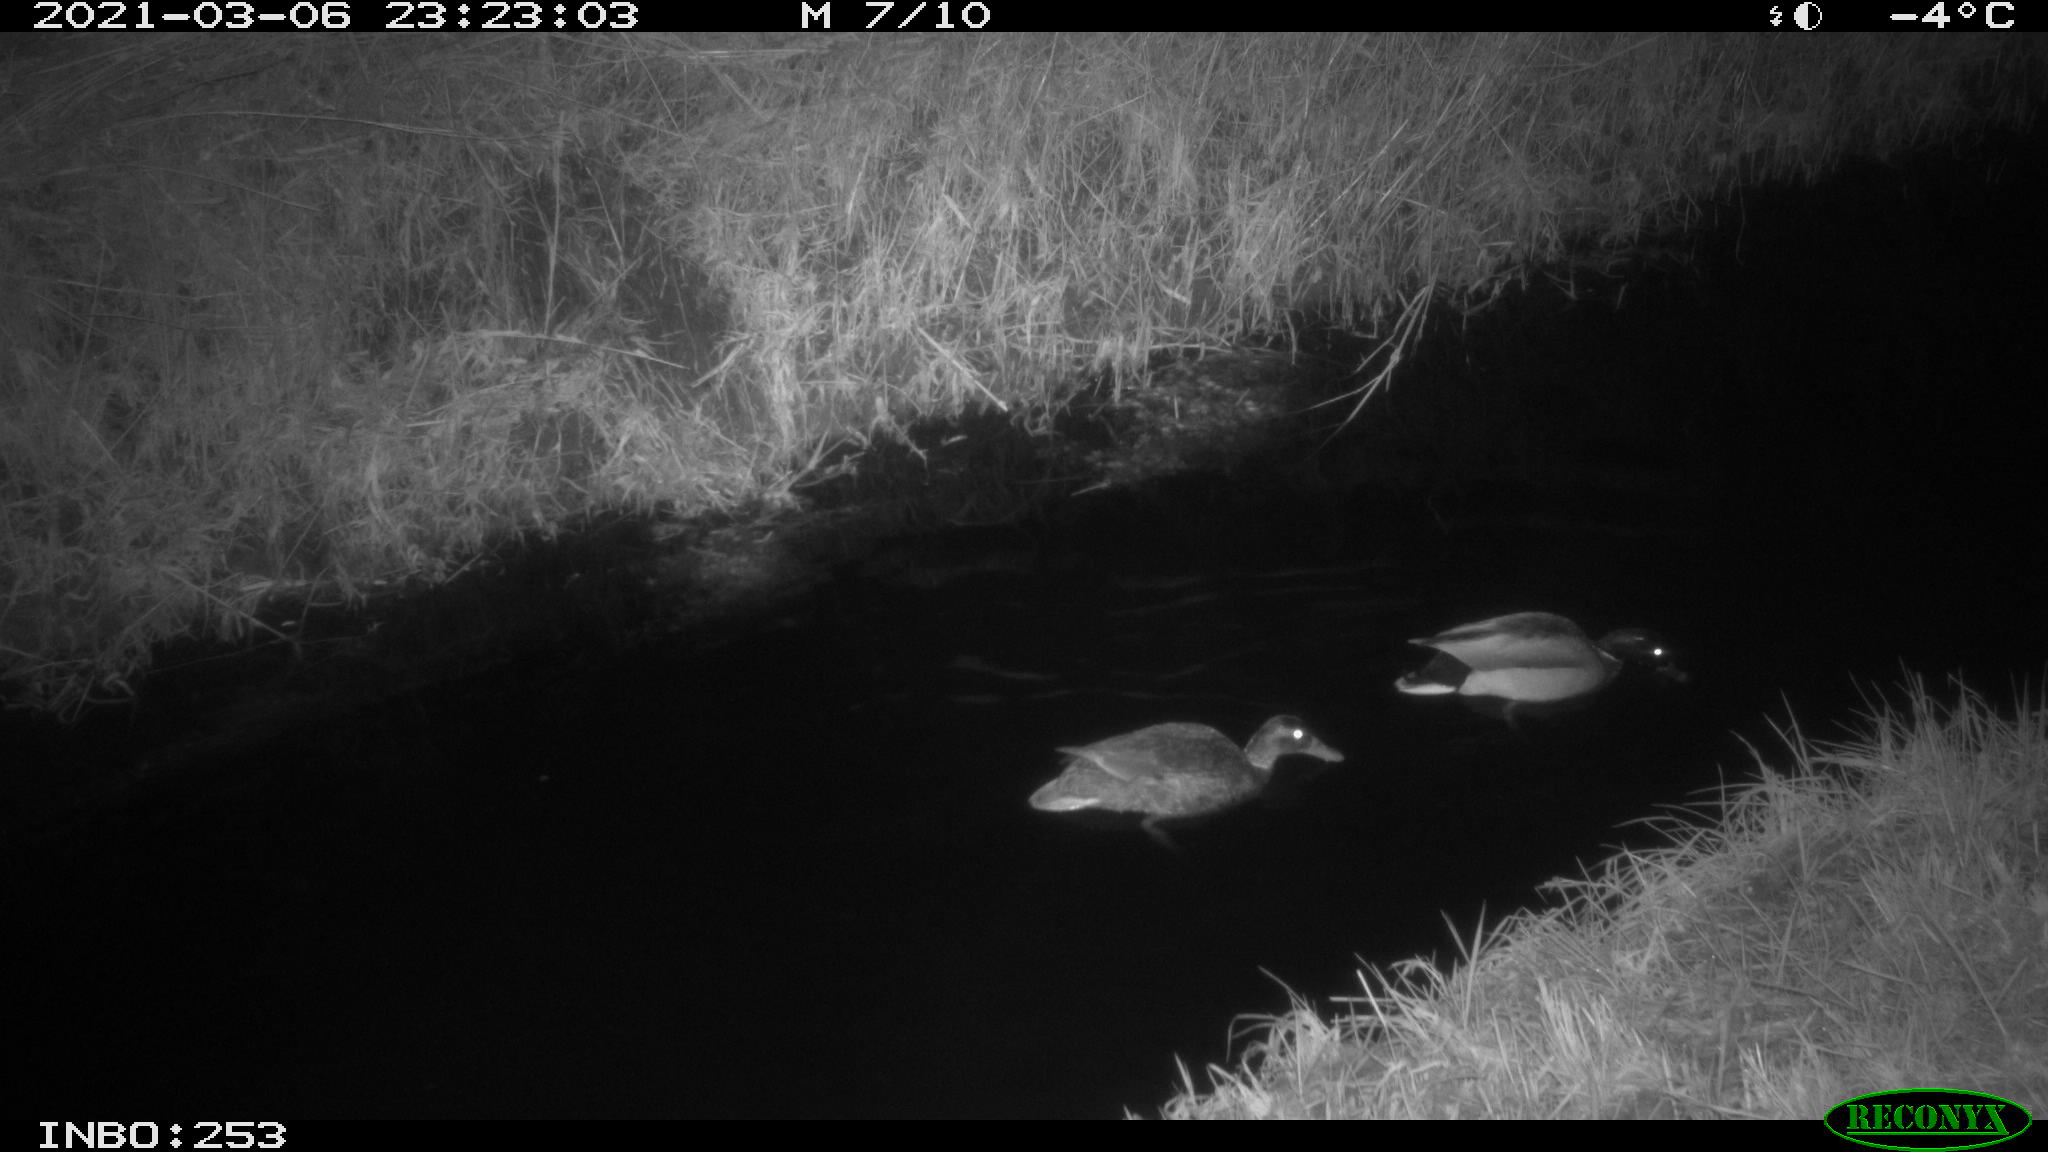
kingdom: Animalia
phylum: Chordata
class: Aves
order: Anseriformes
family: Anatidae
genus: Anas
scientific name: Anas platyrhynchos
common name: Mallard
